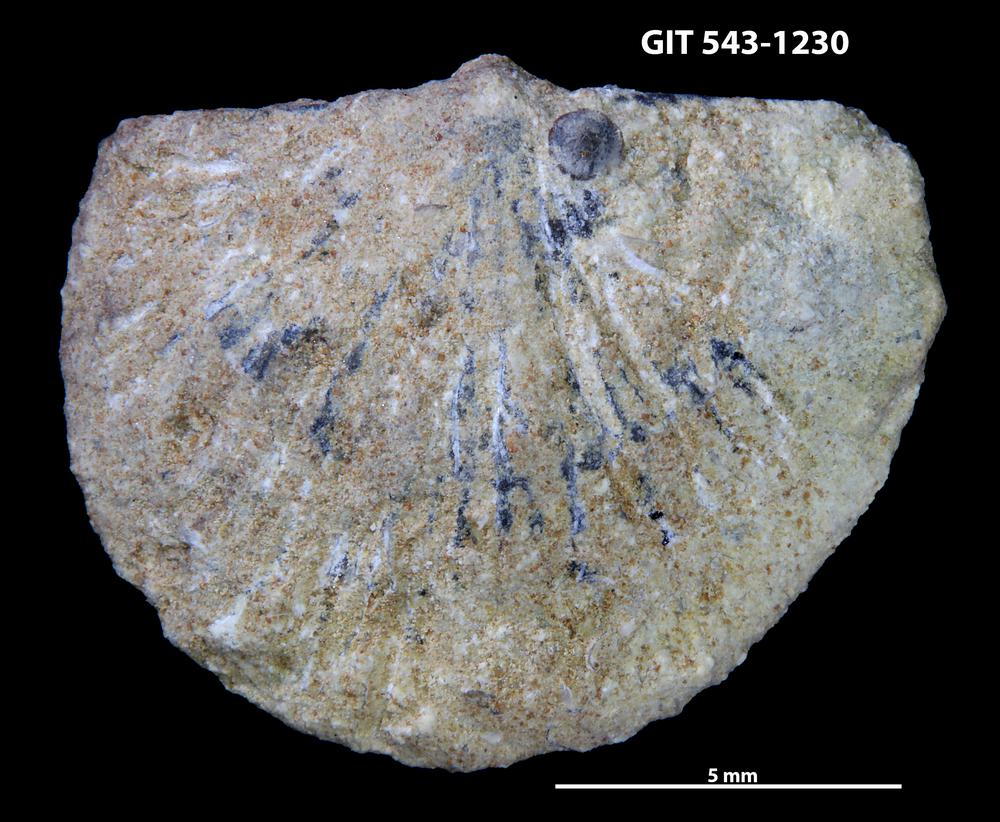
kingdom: Animalia
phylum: Brachiopoda
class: Rhynchonellata
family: Clitambonitidae
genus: Clitambonites
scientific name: Clitambonites
